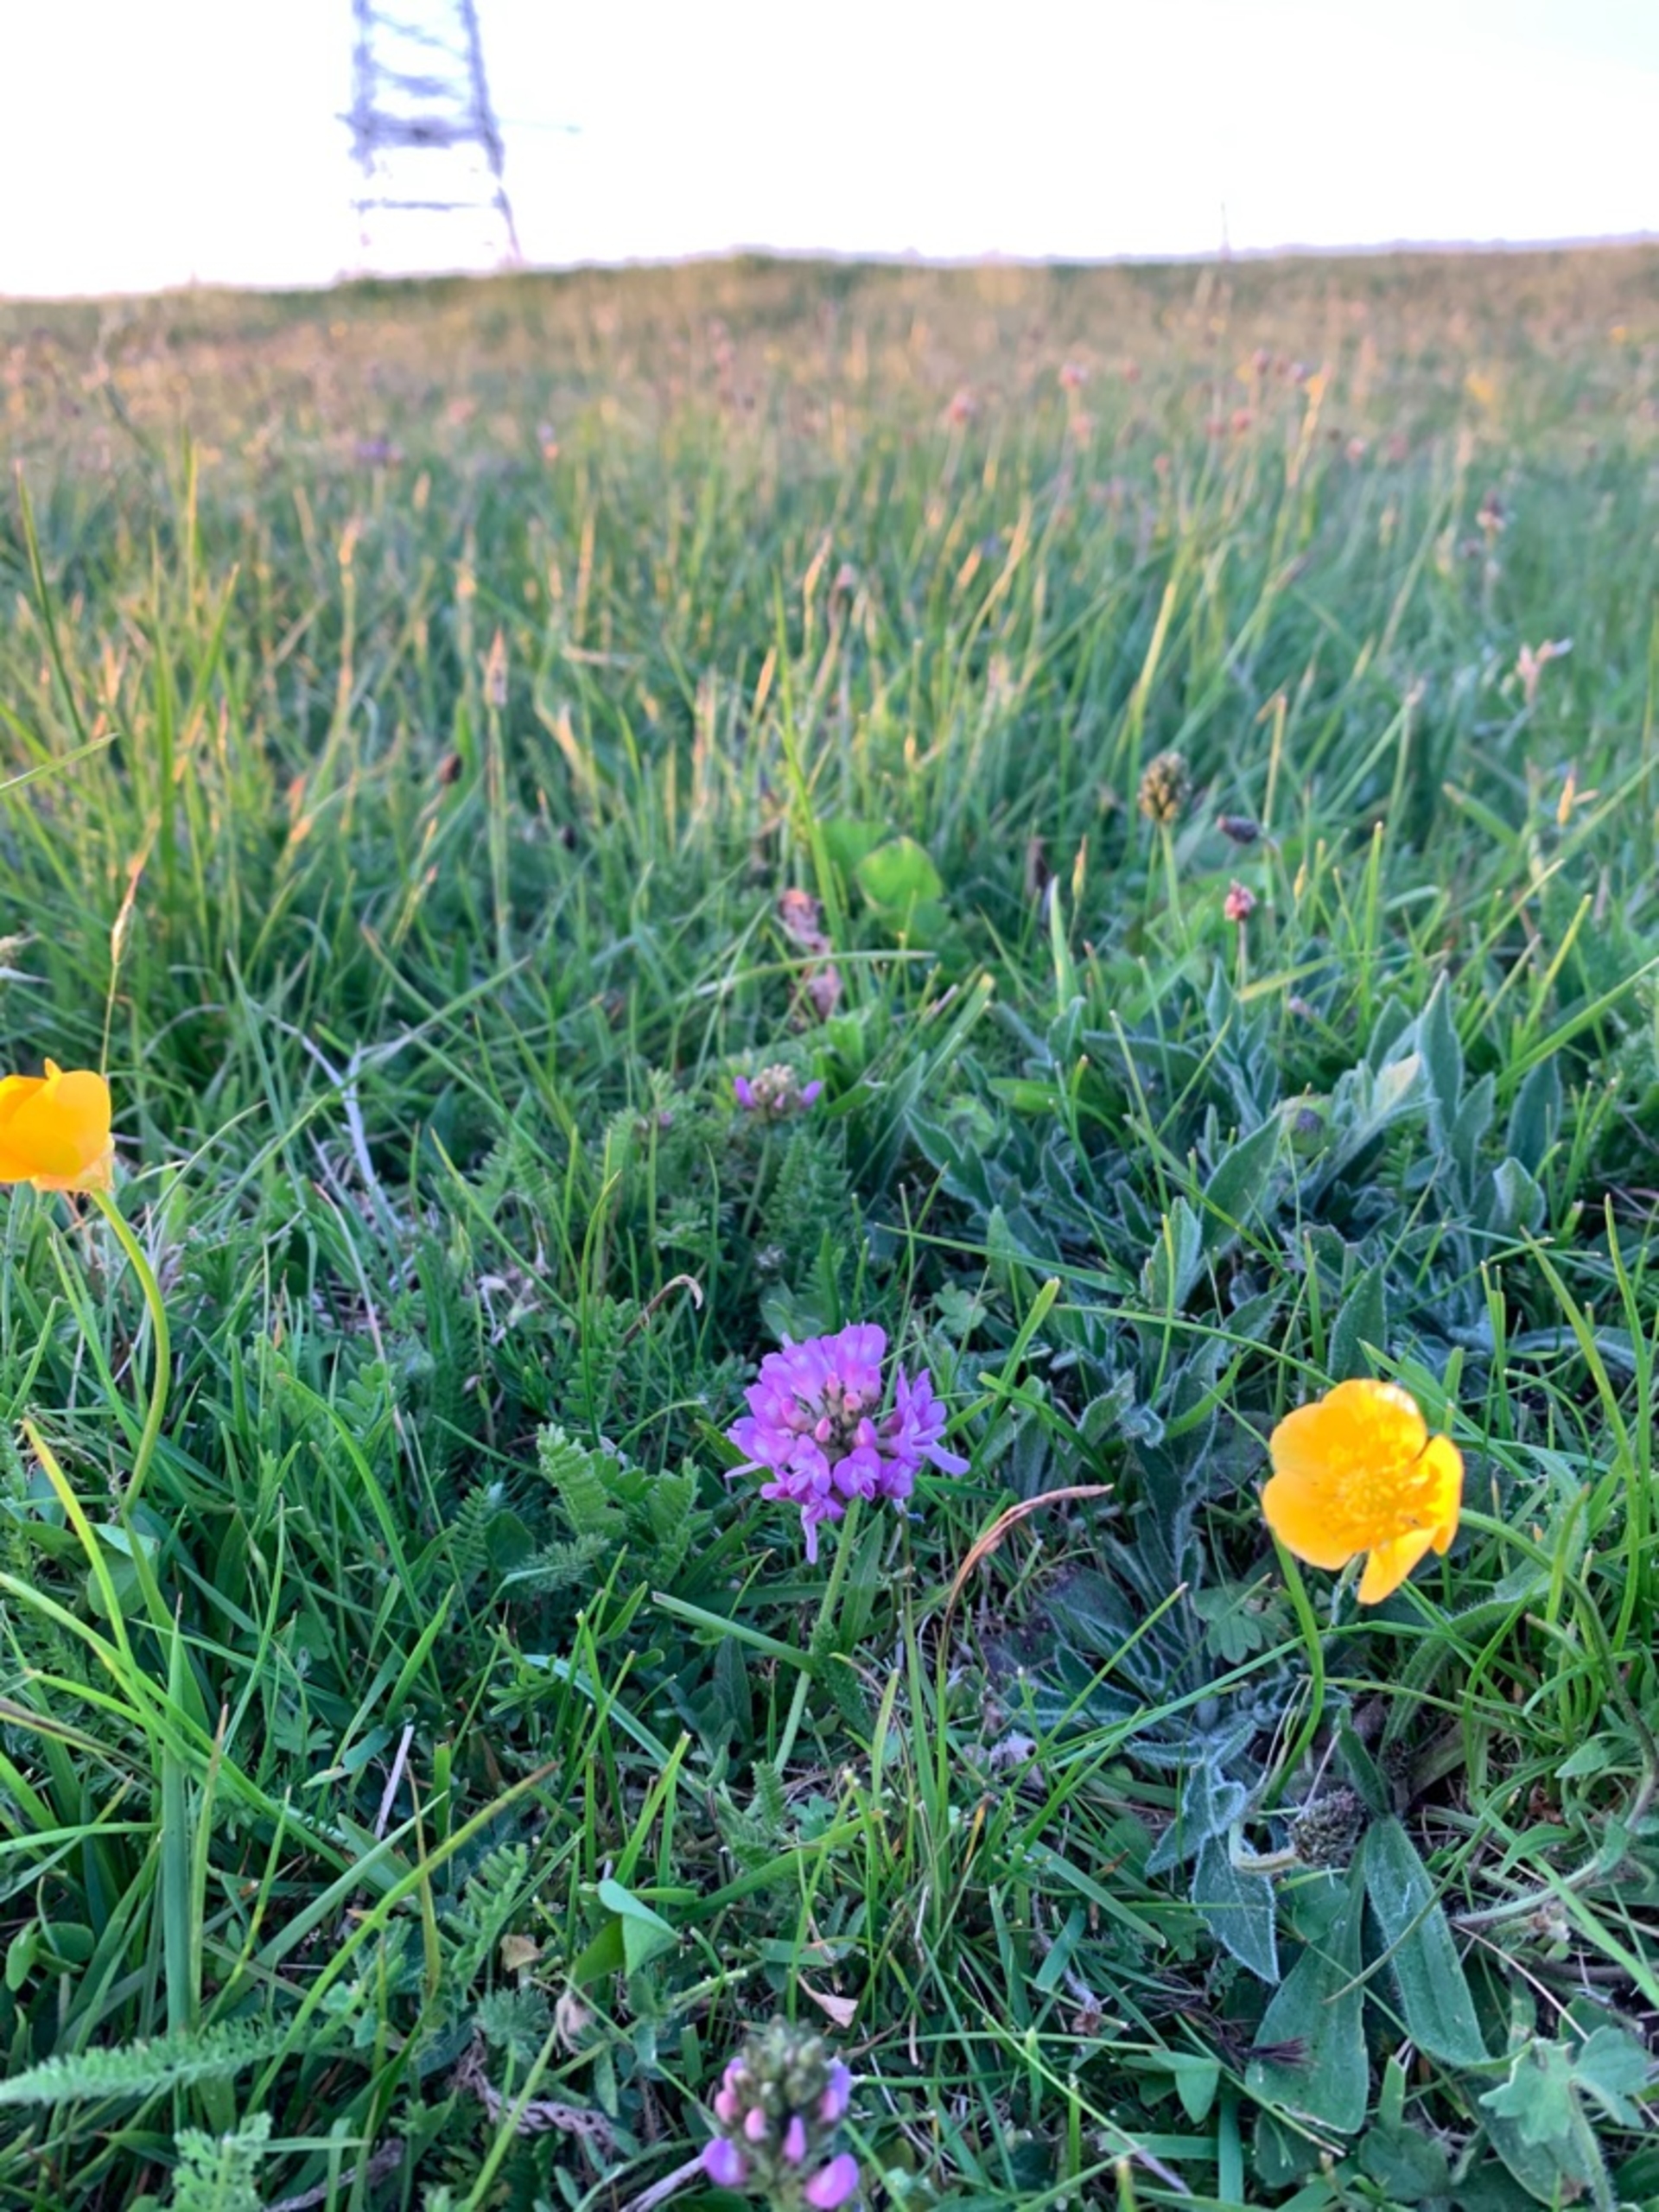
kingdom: Plantae
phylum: Tracheophyta
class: Magnoliopsida
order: Fabales
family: Fabaceae
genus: Astragalus
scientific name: Astragalus danicus
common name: Dansk astragel
